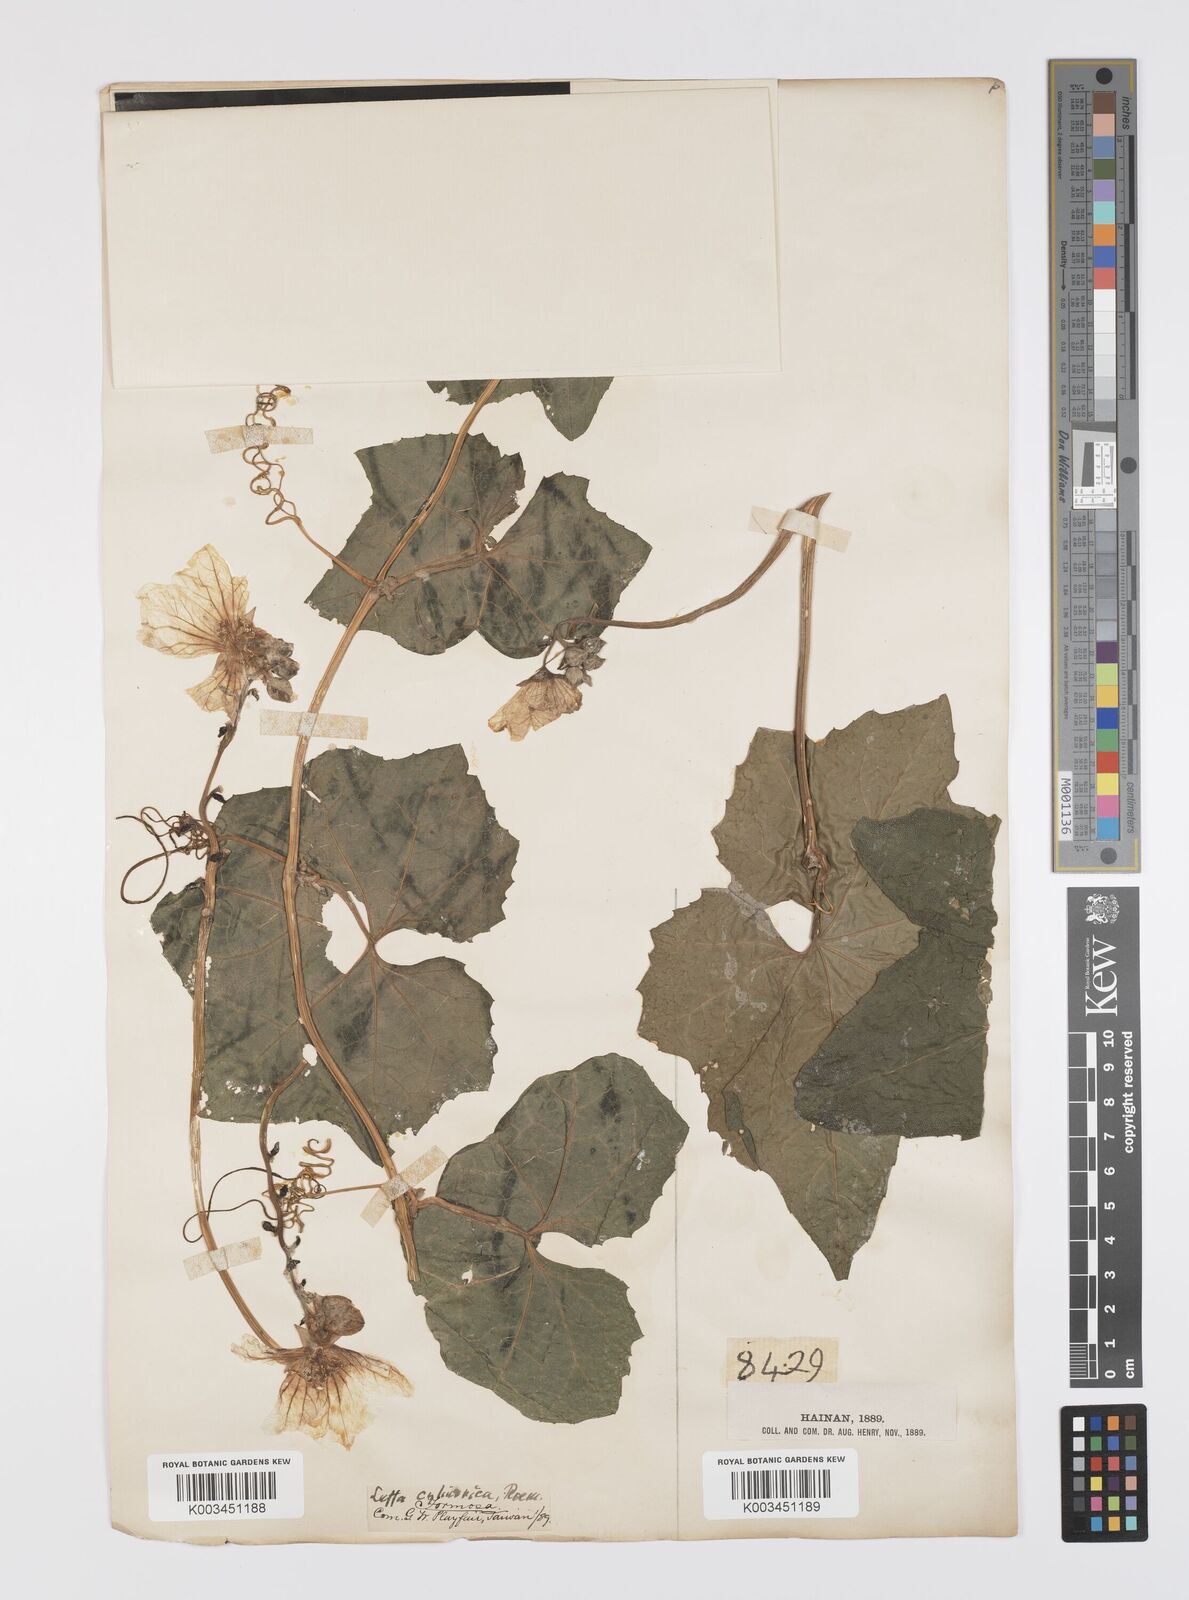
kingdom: Plantae
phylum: Tracheophyta
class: Magnoliopsida
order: Cucurbitales
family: Cucurbitaceae
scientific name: Cucurbitaceae
